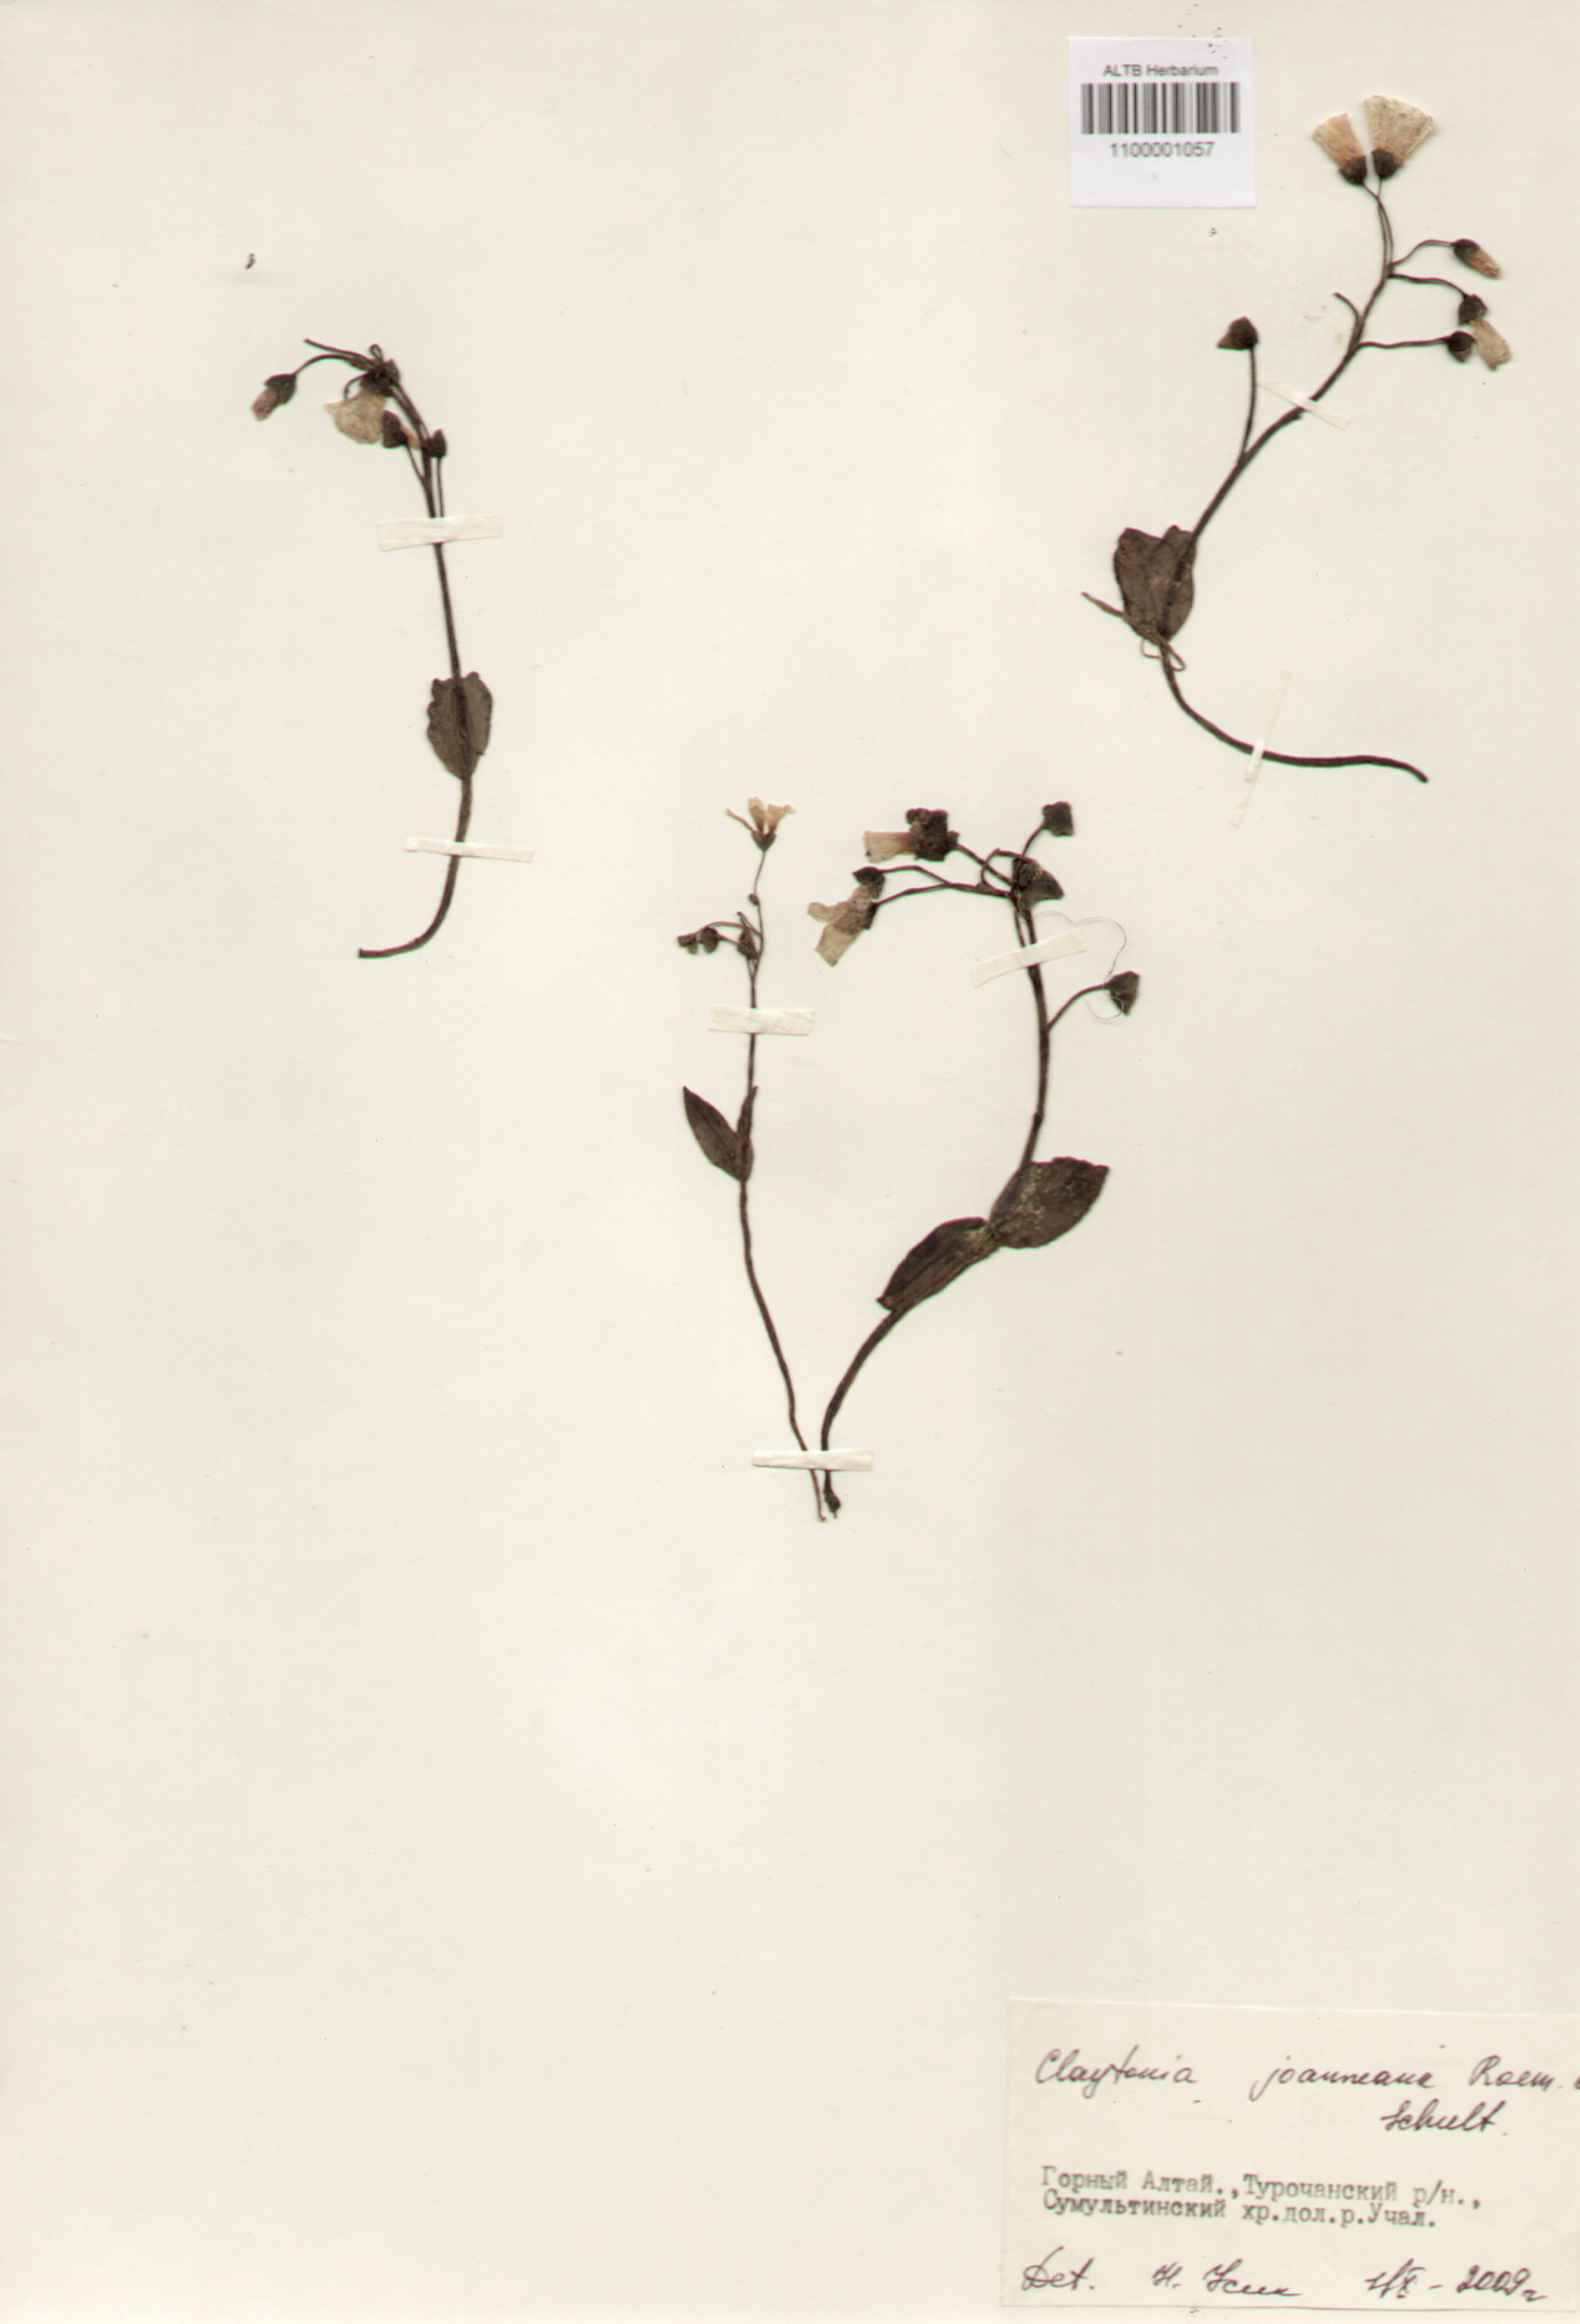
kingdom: Plantae
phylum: Tracheophyta
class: Magnoliopsida
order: Caryophyllales
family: Montiaceae
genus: Claytonia
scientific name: Claytonia joanneana
